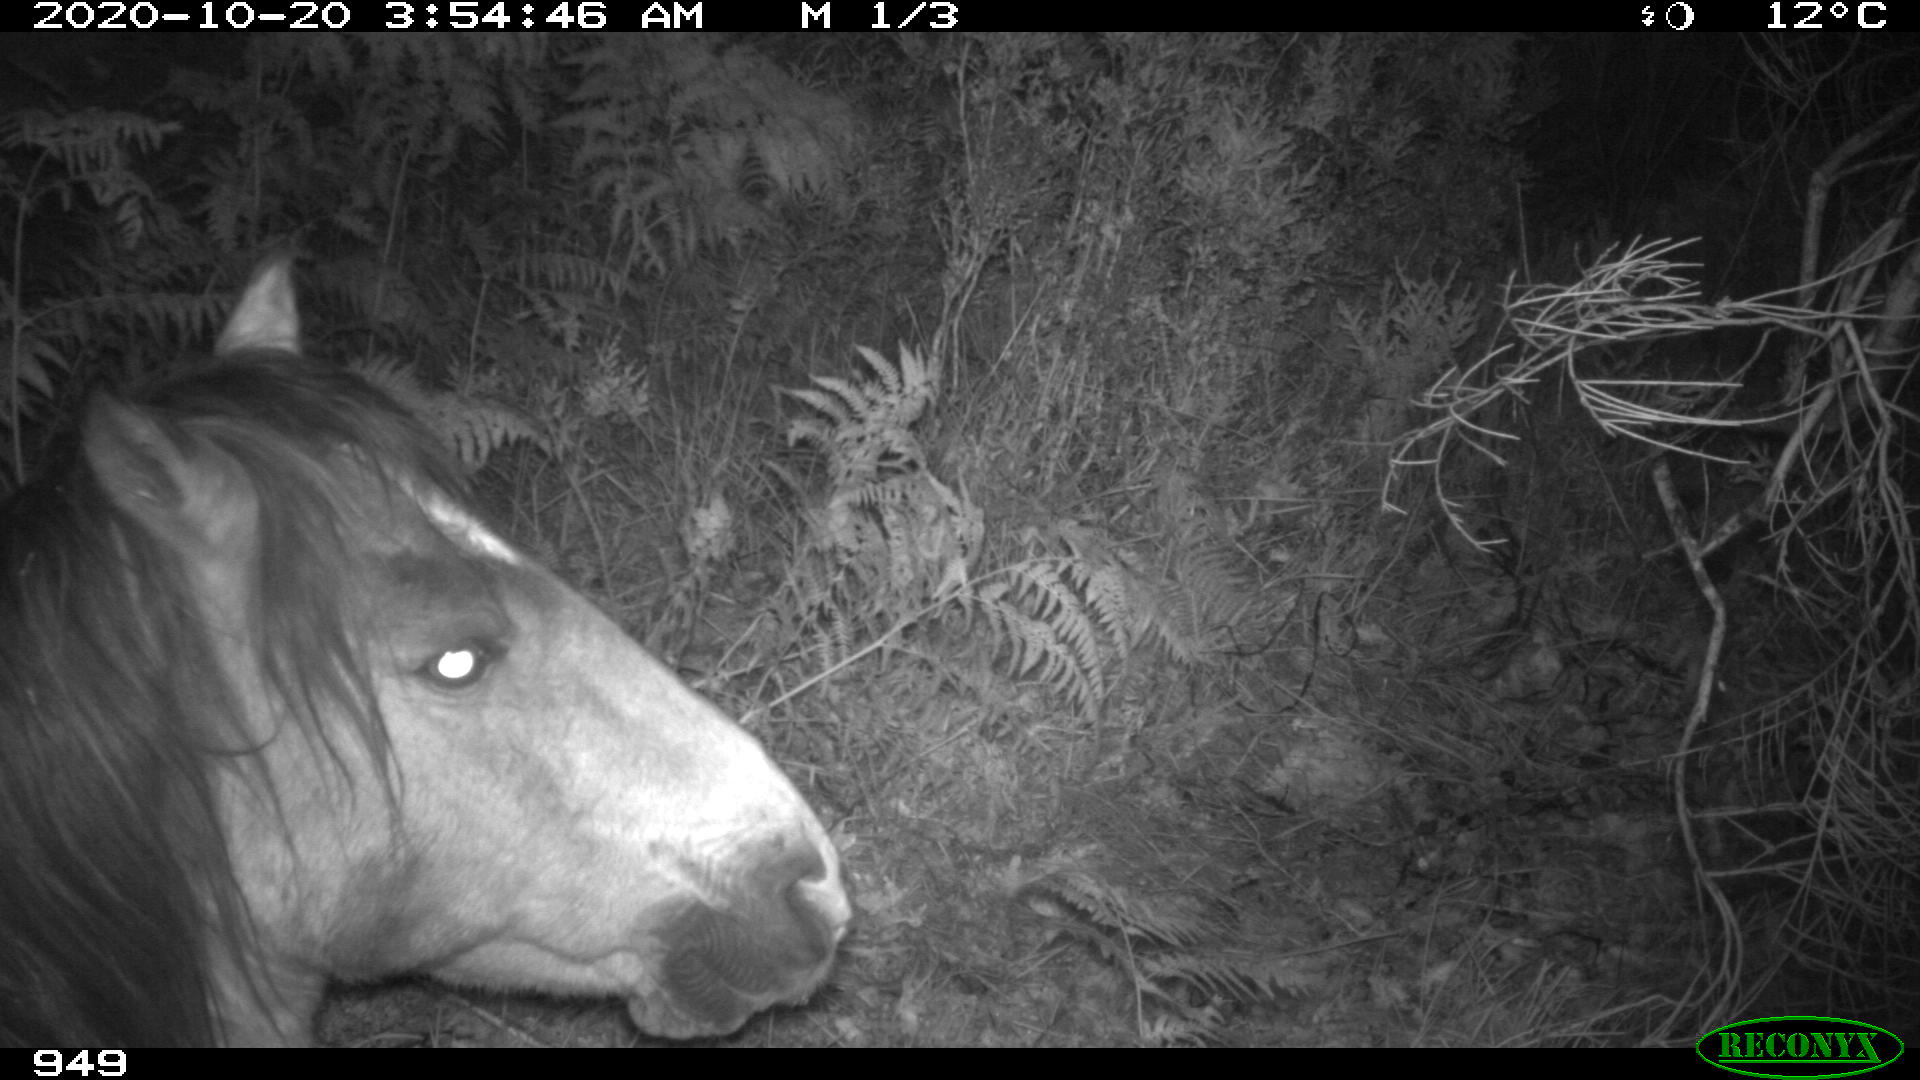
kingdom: Animalia
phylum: Chordata
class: Mammalia
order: Perissodactyla
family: Equidae
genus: Equus
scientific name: Equus caballus
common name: Horse
